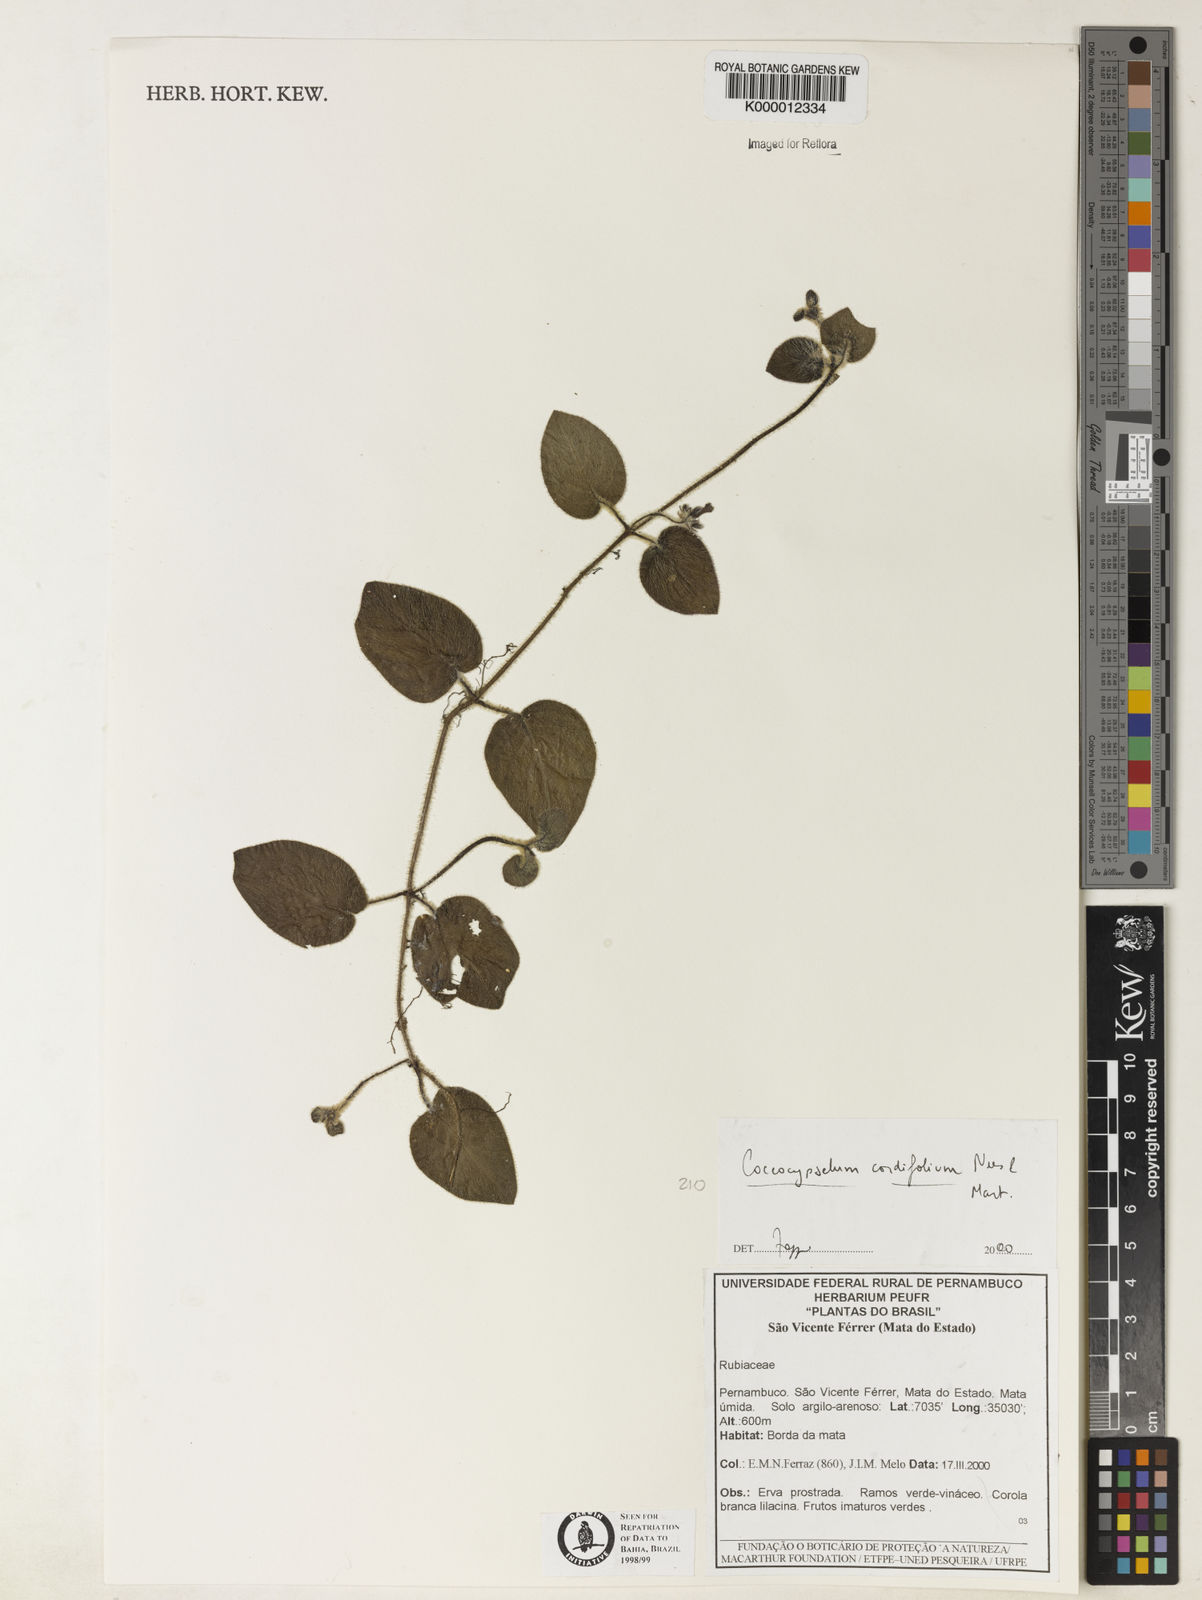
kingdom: Plantae
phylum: Tracheophyta
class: Magnoliopsida
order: Gentianales
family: Rubiaceae
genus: Coccocypselum
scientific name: Coccocypselum cordifolium
